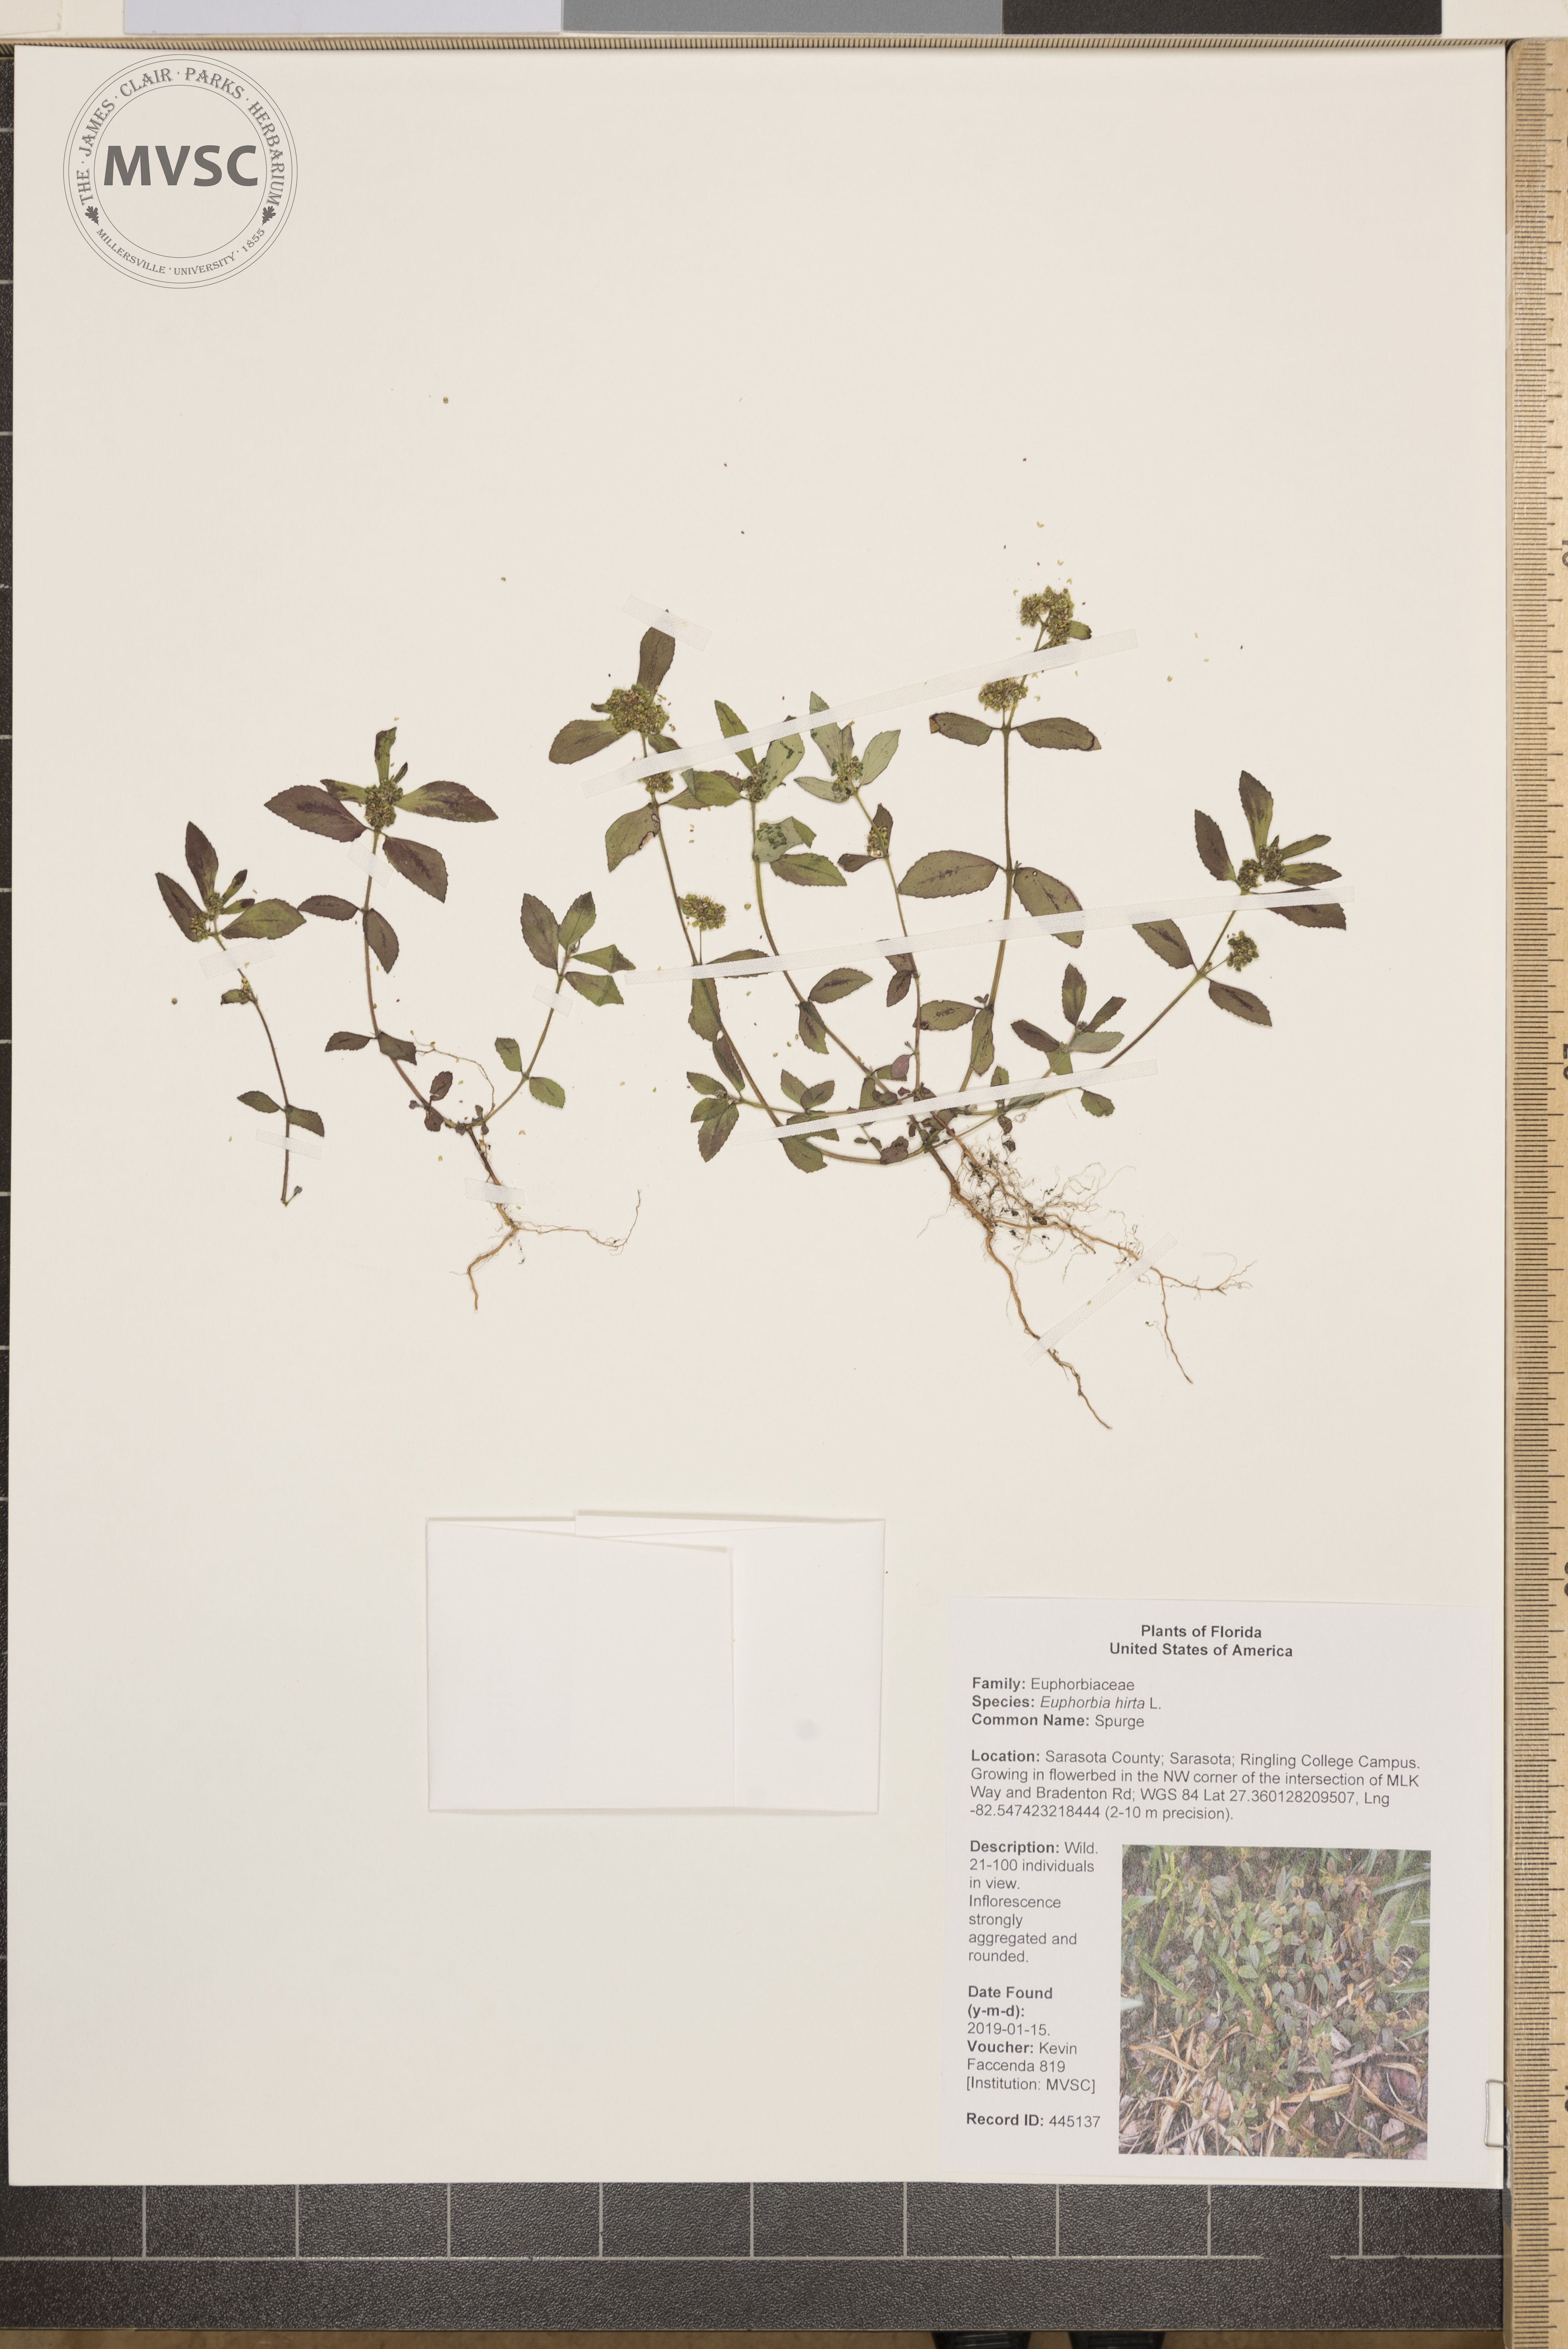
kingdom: Plantae
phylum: Tracheophyta
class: Magnoliopsida
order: Malpighiales
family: Euphorbiaceae
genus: Euphorbia
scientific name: Euphorbia hirta
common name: Spurge
